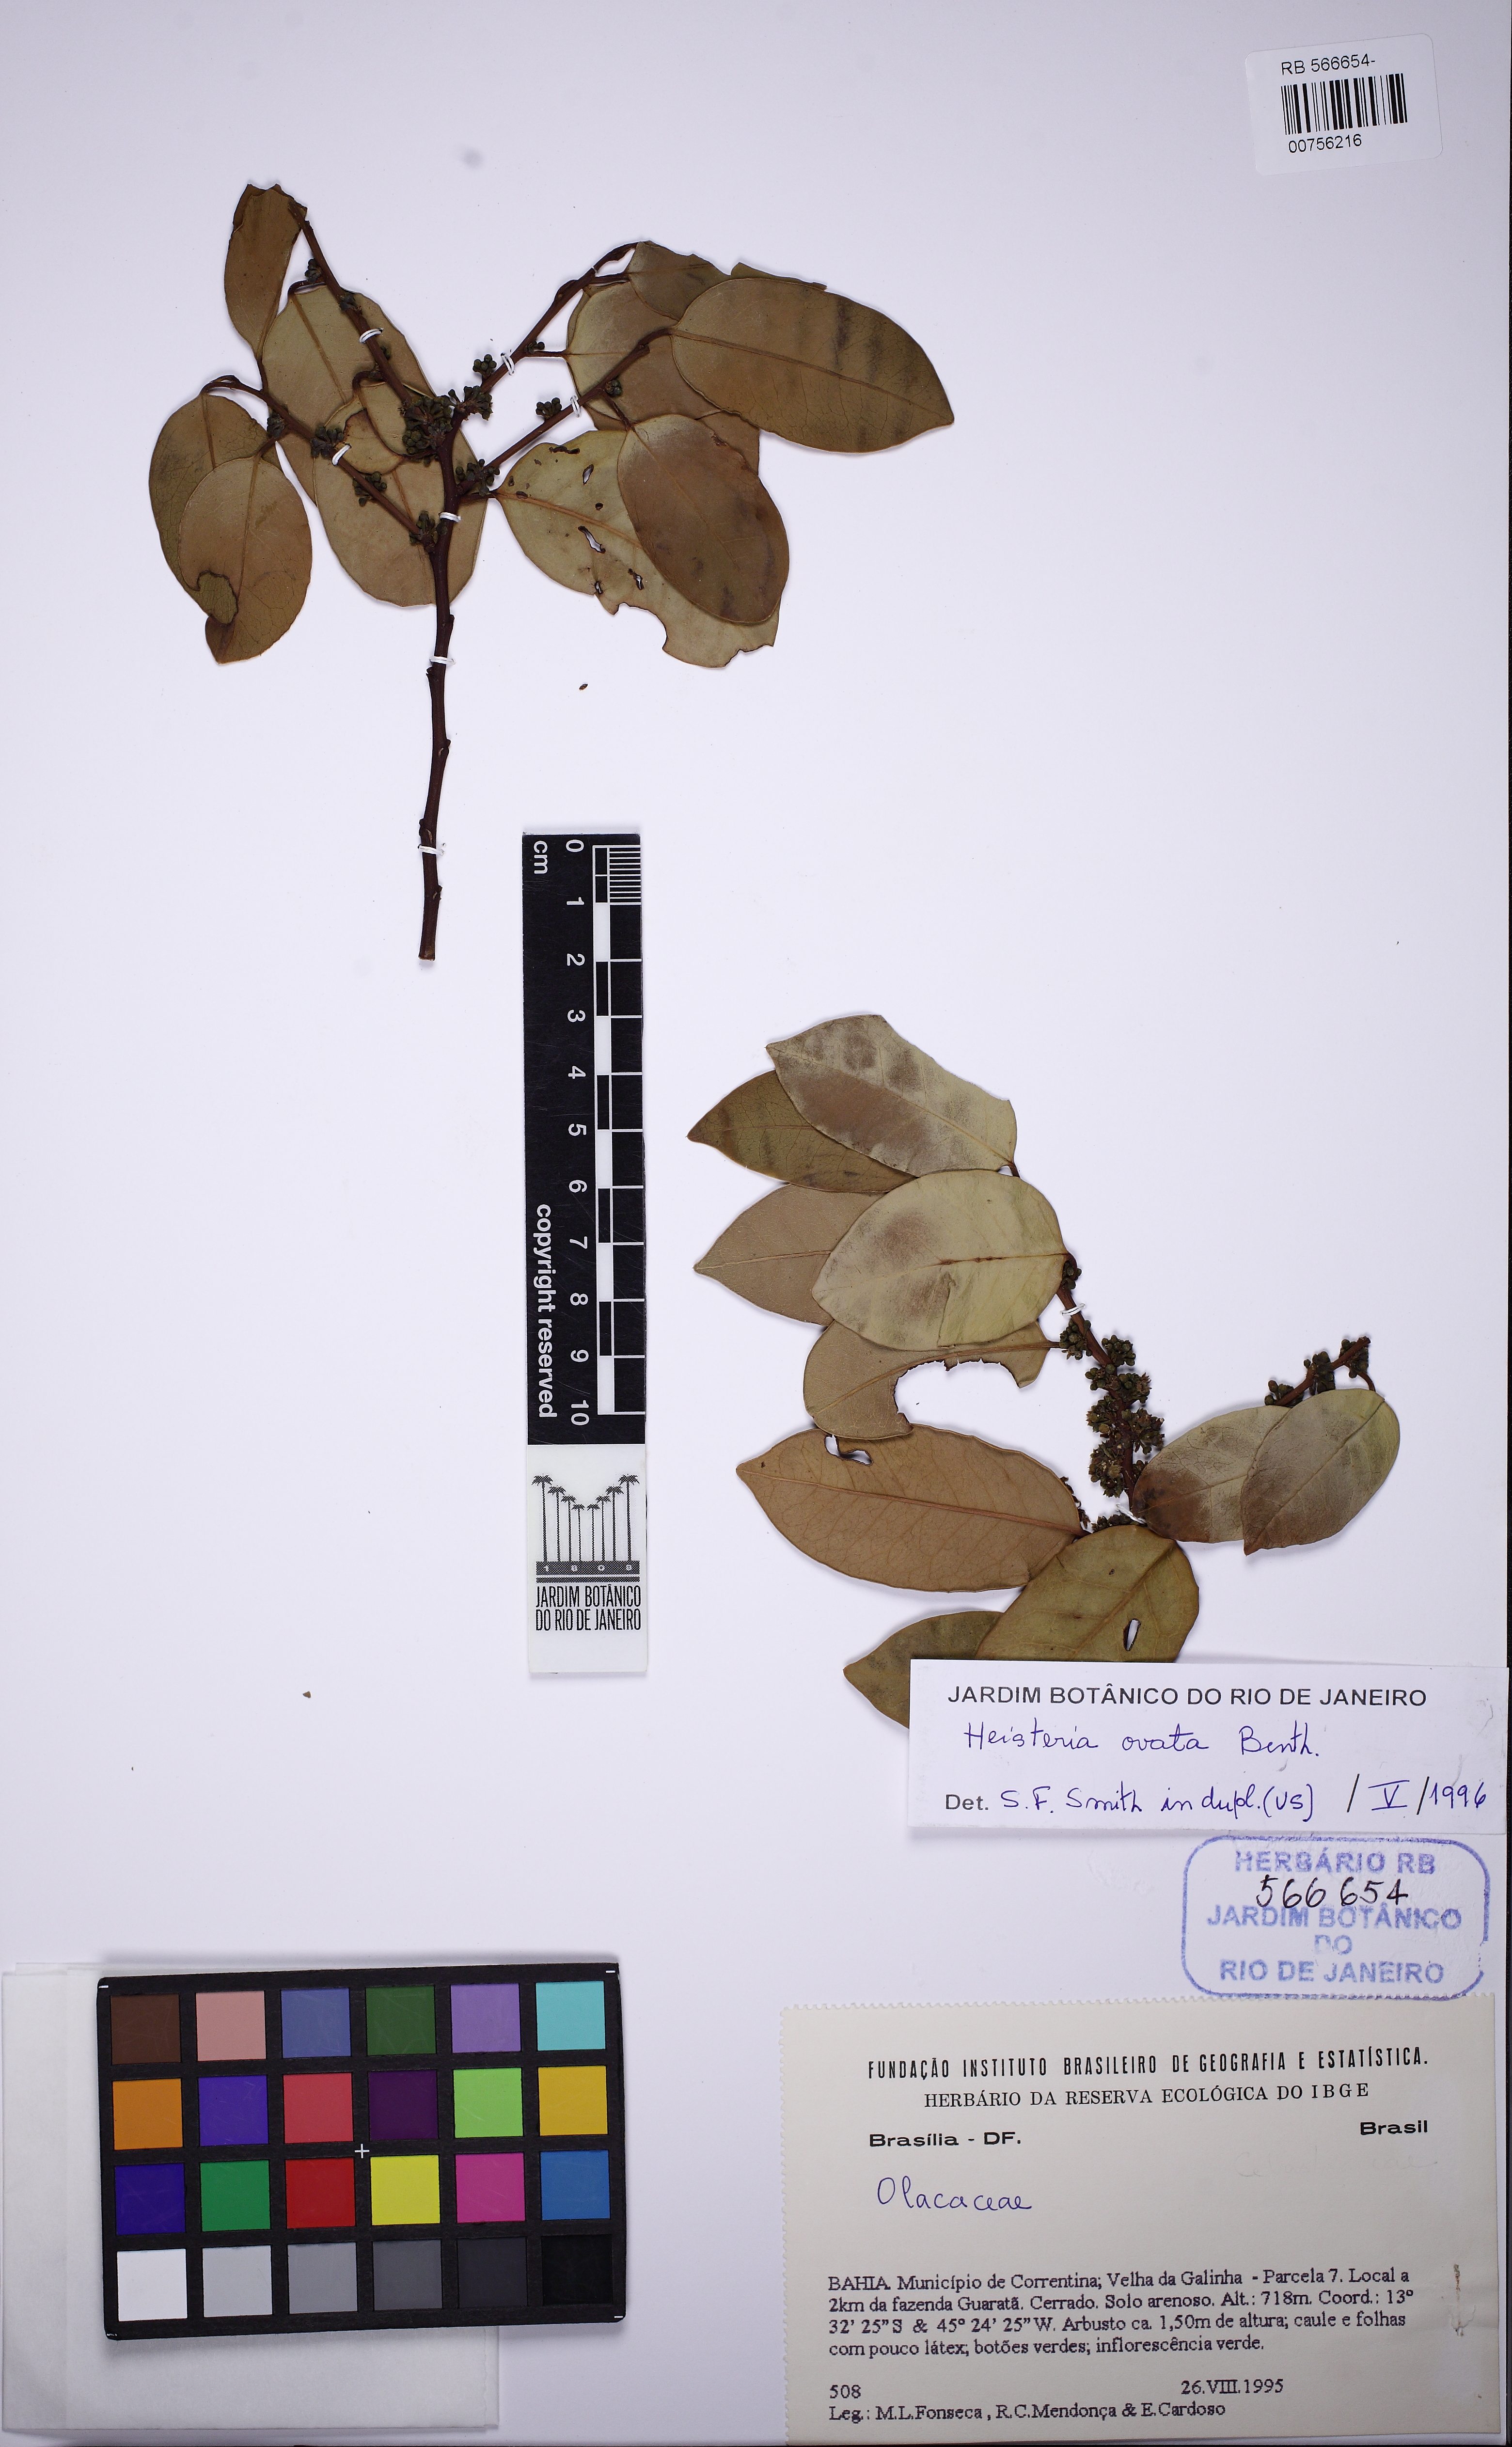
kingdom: Plantae
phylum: Tracheophyta
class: Magnoliopsida
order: Santalales
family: Erythropalaceae
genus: Heisteria
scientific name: Heisteria ovata
